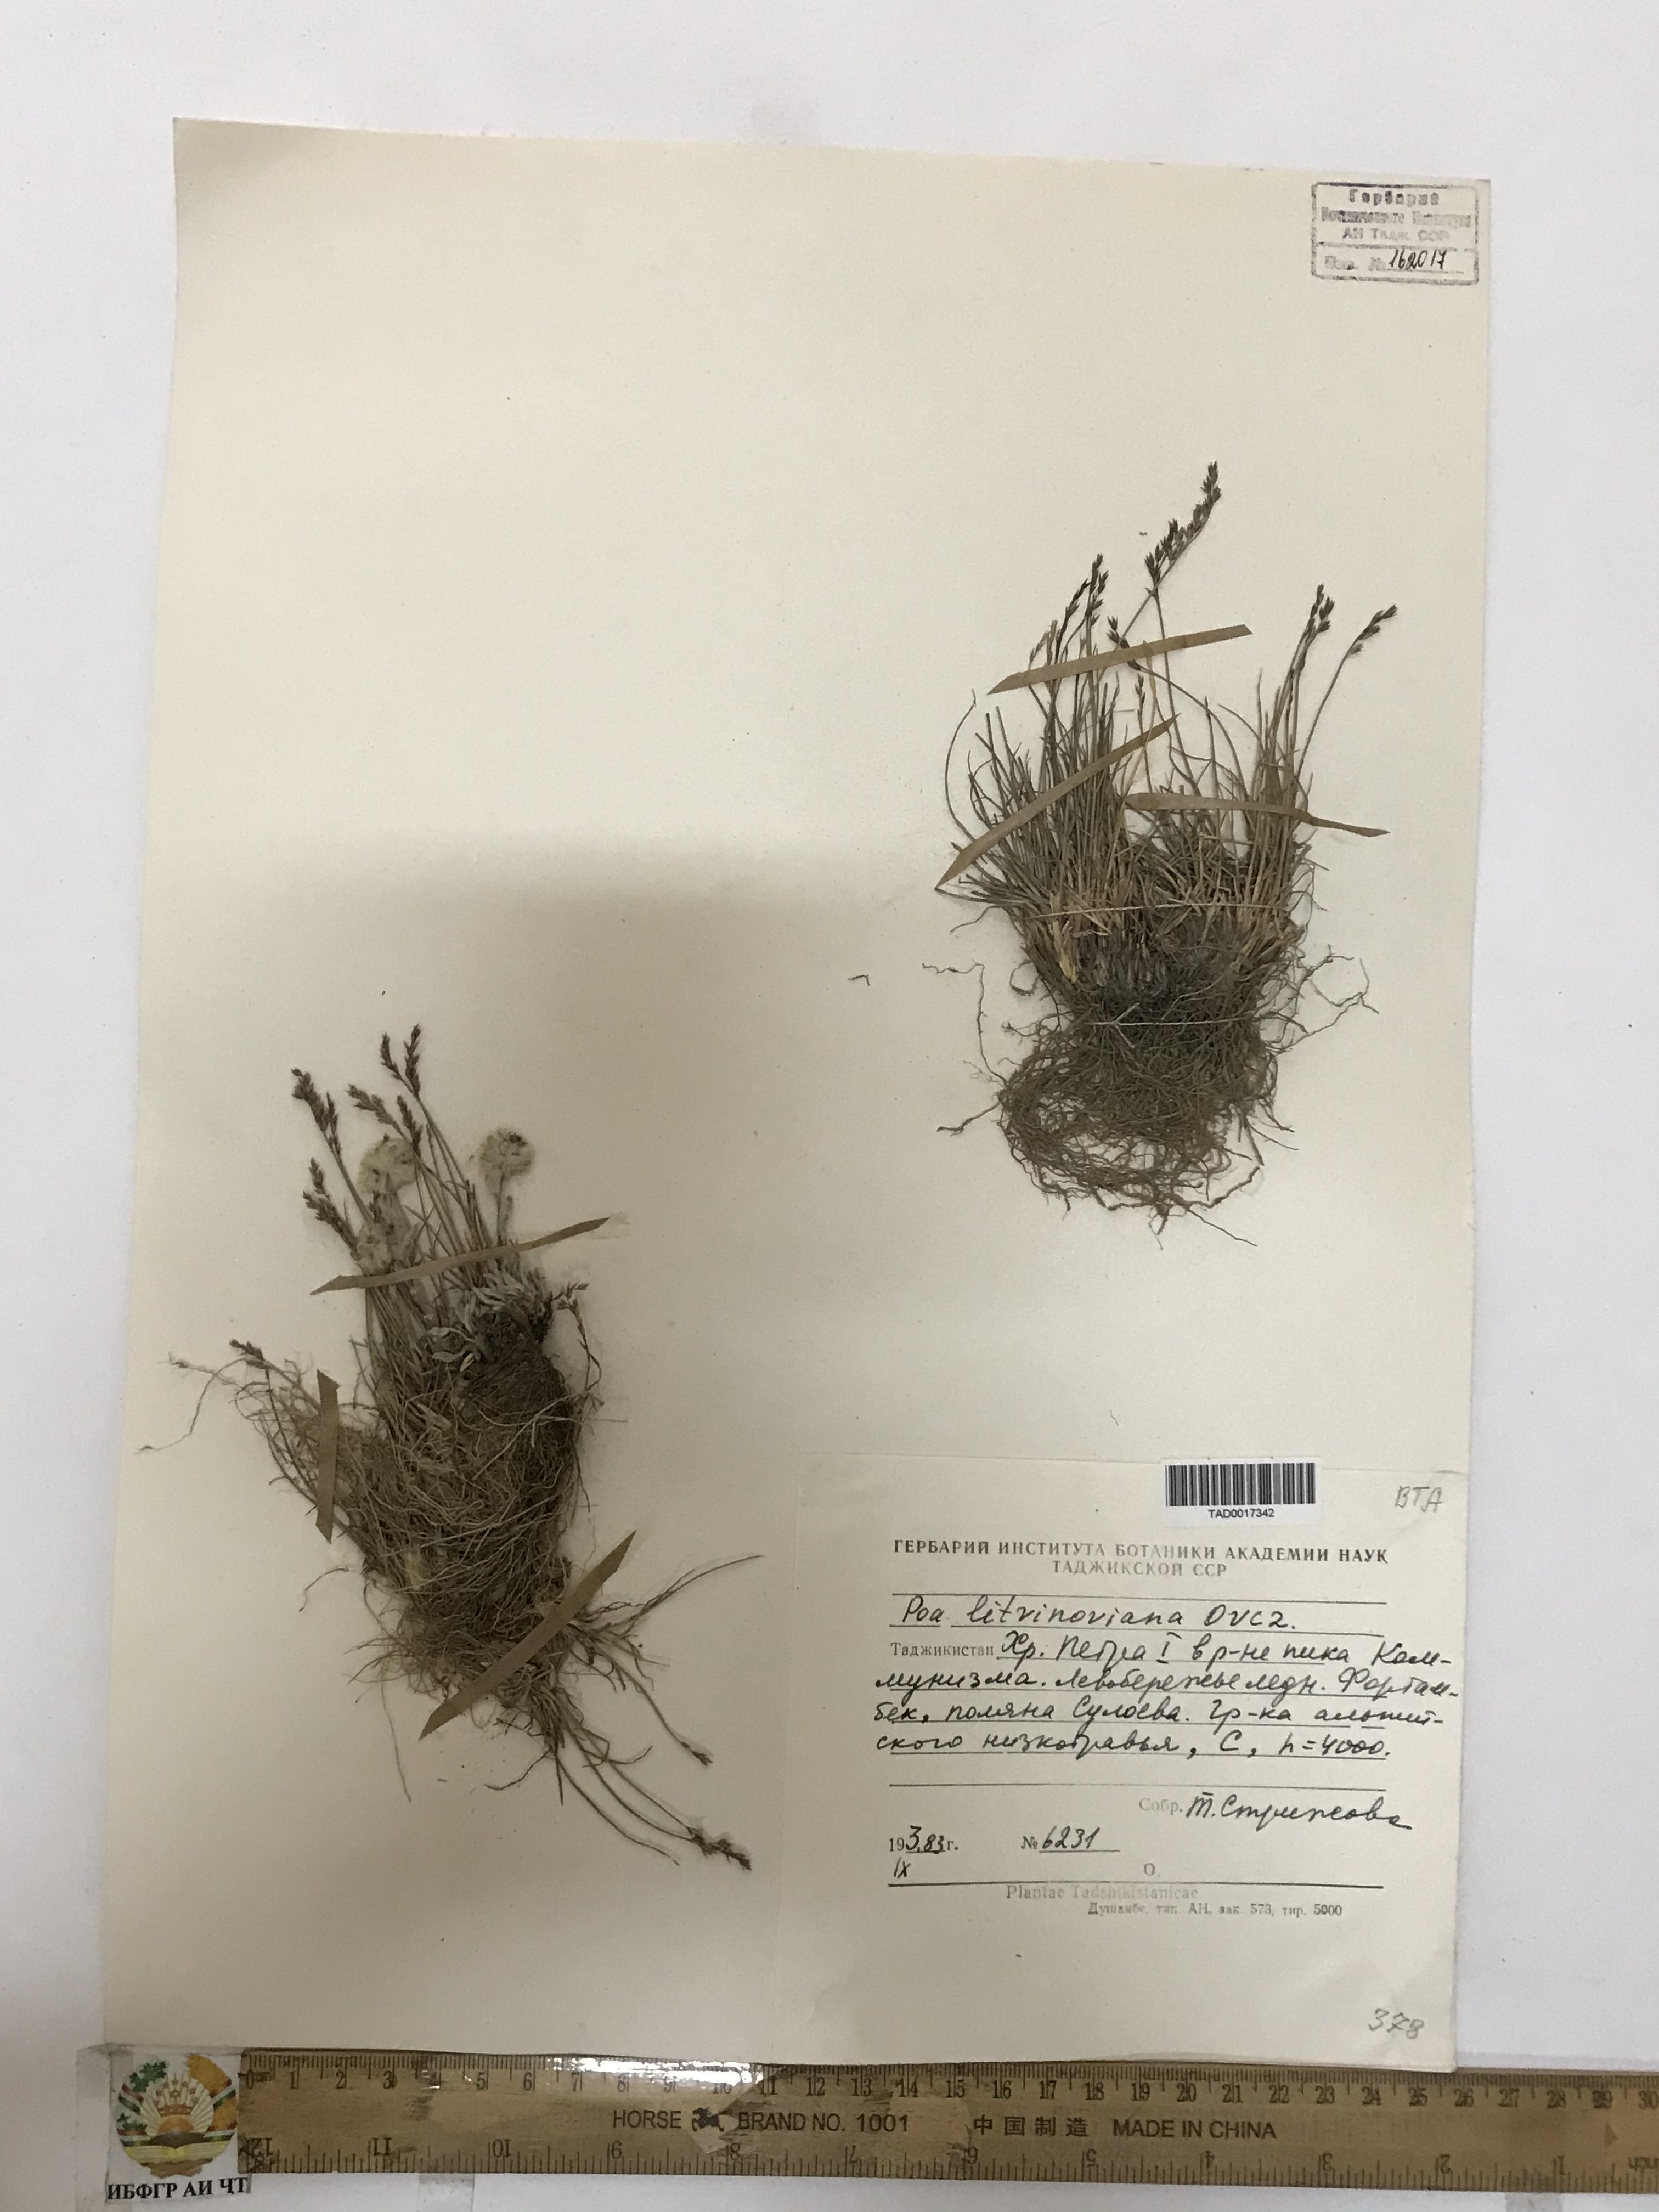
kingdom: Plantae
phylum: Tracheophyta
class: Liliopsida
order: Poales
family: Poaceae
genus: Poa
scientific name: Poa glauca
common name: Glaucous bluegrass
